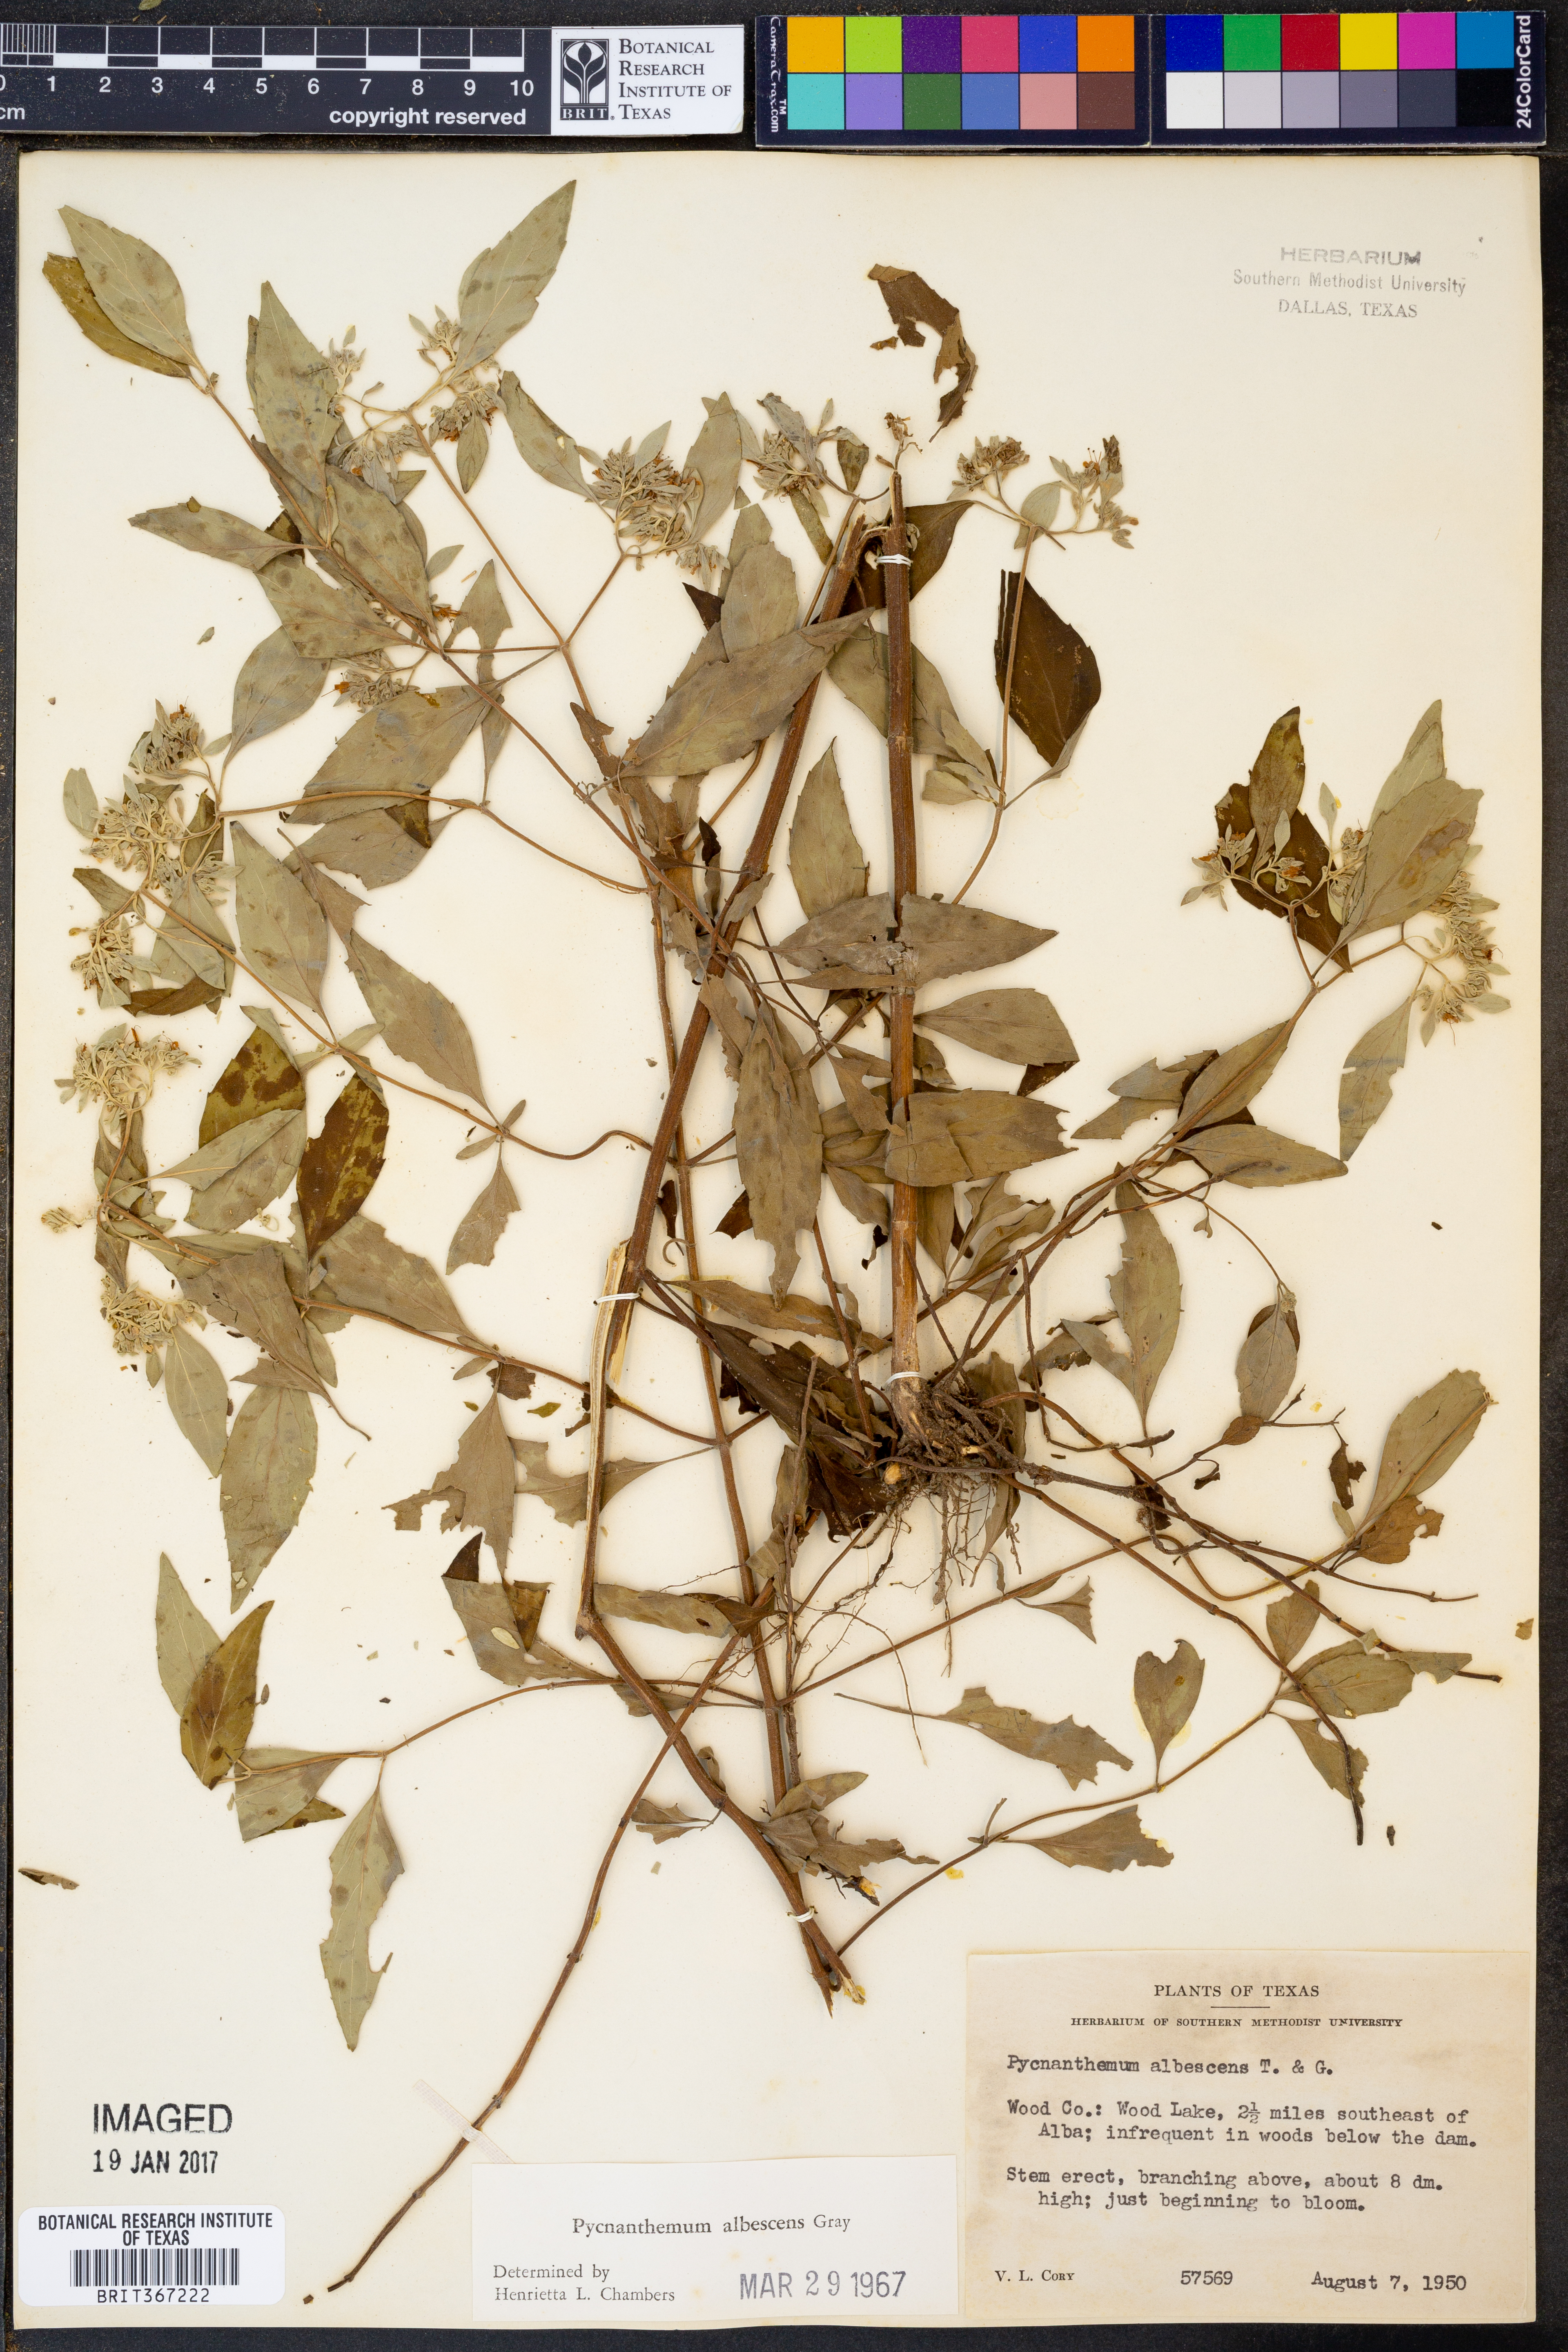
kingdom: Plantae
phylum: Tracheophyta
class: Magnoliopsida
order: Lamiales
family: Lamiaceae
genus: Pycnanthemum
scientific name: Pycnanthemum albescens
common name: White-leaf mountain-mint
